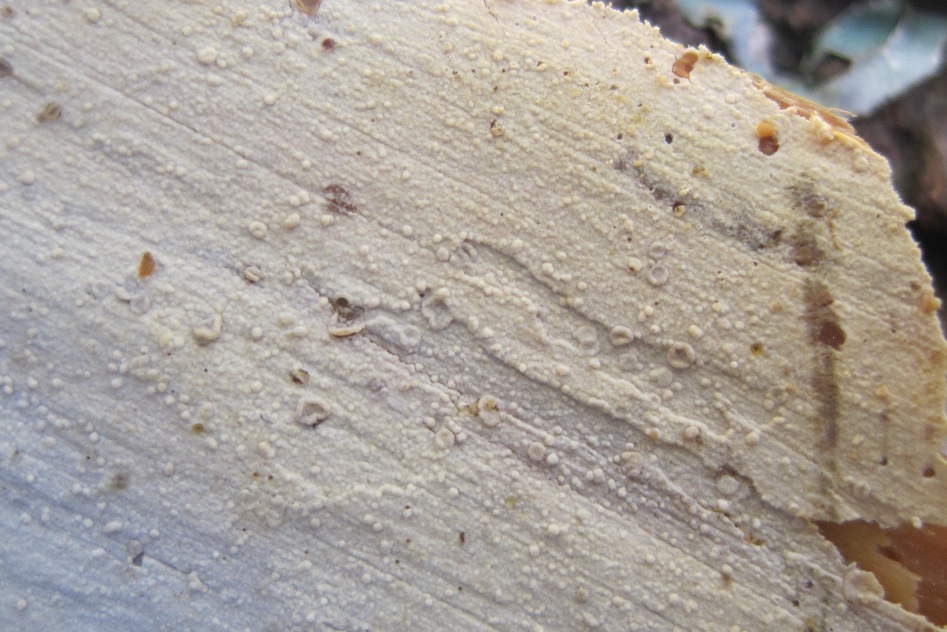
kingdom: Fungi
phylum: Basidiomycota
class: Agaricomycetes
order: Hymenochaetales
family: Hyphodontiaceae
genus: Hyphodontia
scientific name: Hyphodontia alutaria
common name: flaskerenser-nålehinde
